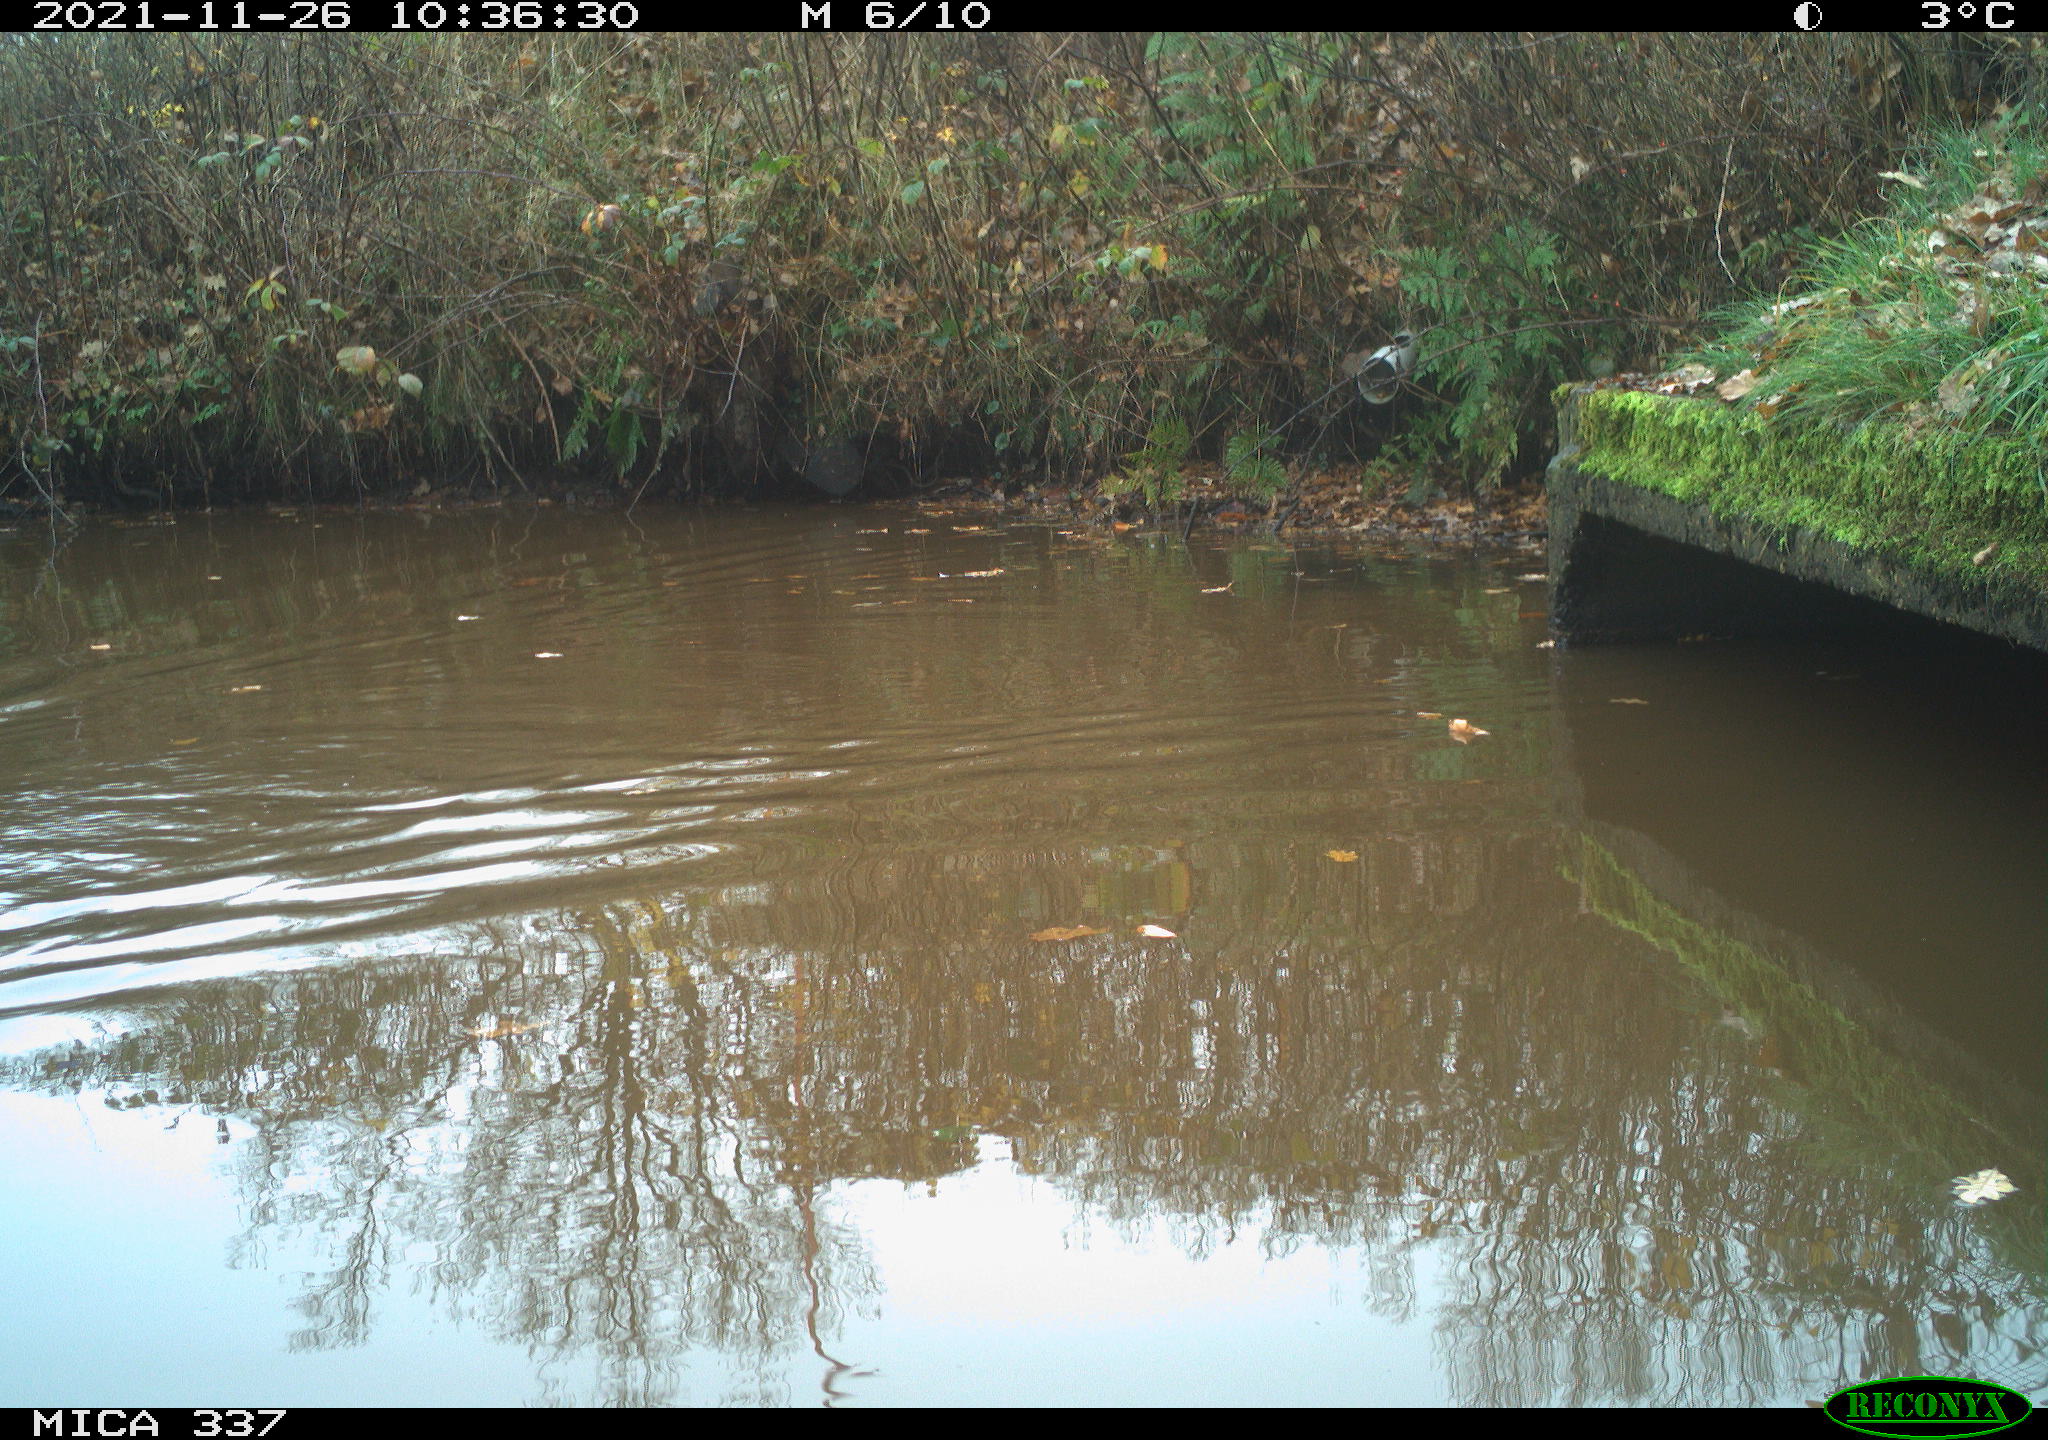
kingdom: Animalia
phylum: Chordata
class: Aves
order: Anseriformes
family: Anatidae
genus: Anas
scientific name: Anas platyrhynchos
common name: Mallard
